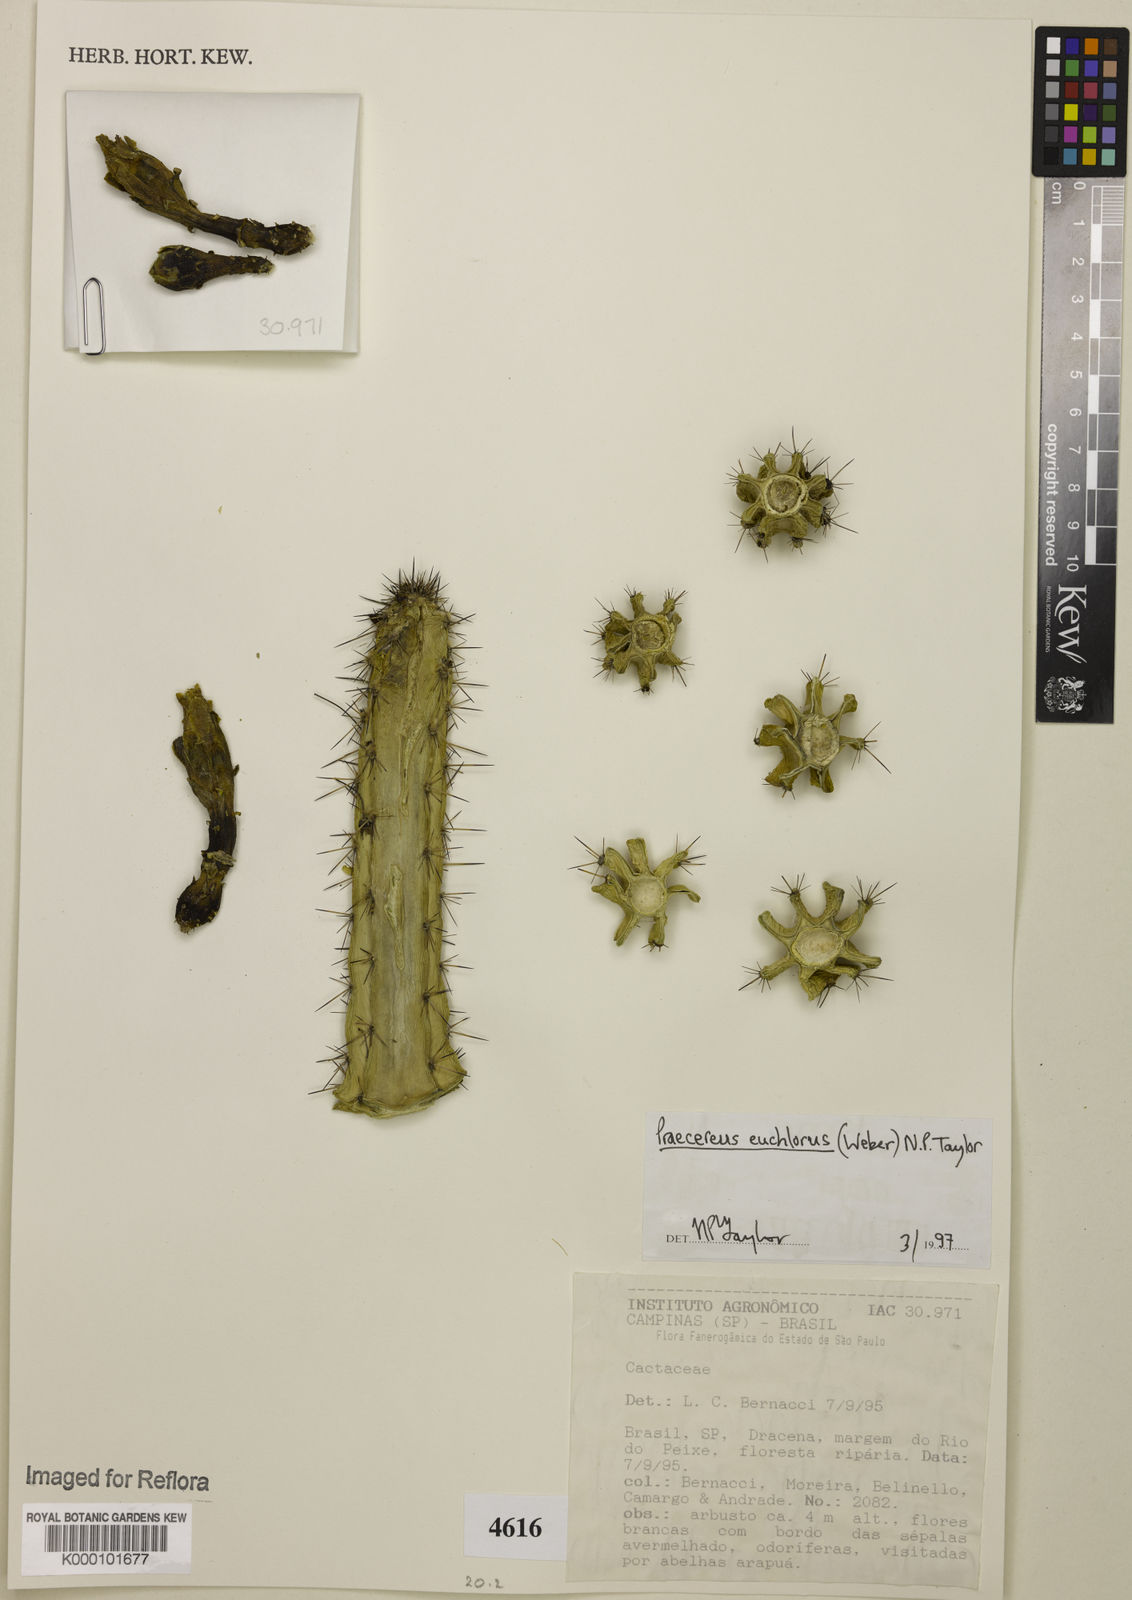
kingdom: Plantae
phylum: Tracheophyta
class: Magnoliopsida
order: Caryophyllales
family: Cactaceae
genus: Praecereus
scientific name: Praecereus euchlorus
